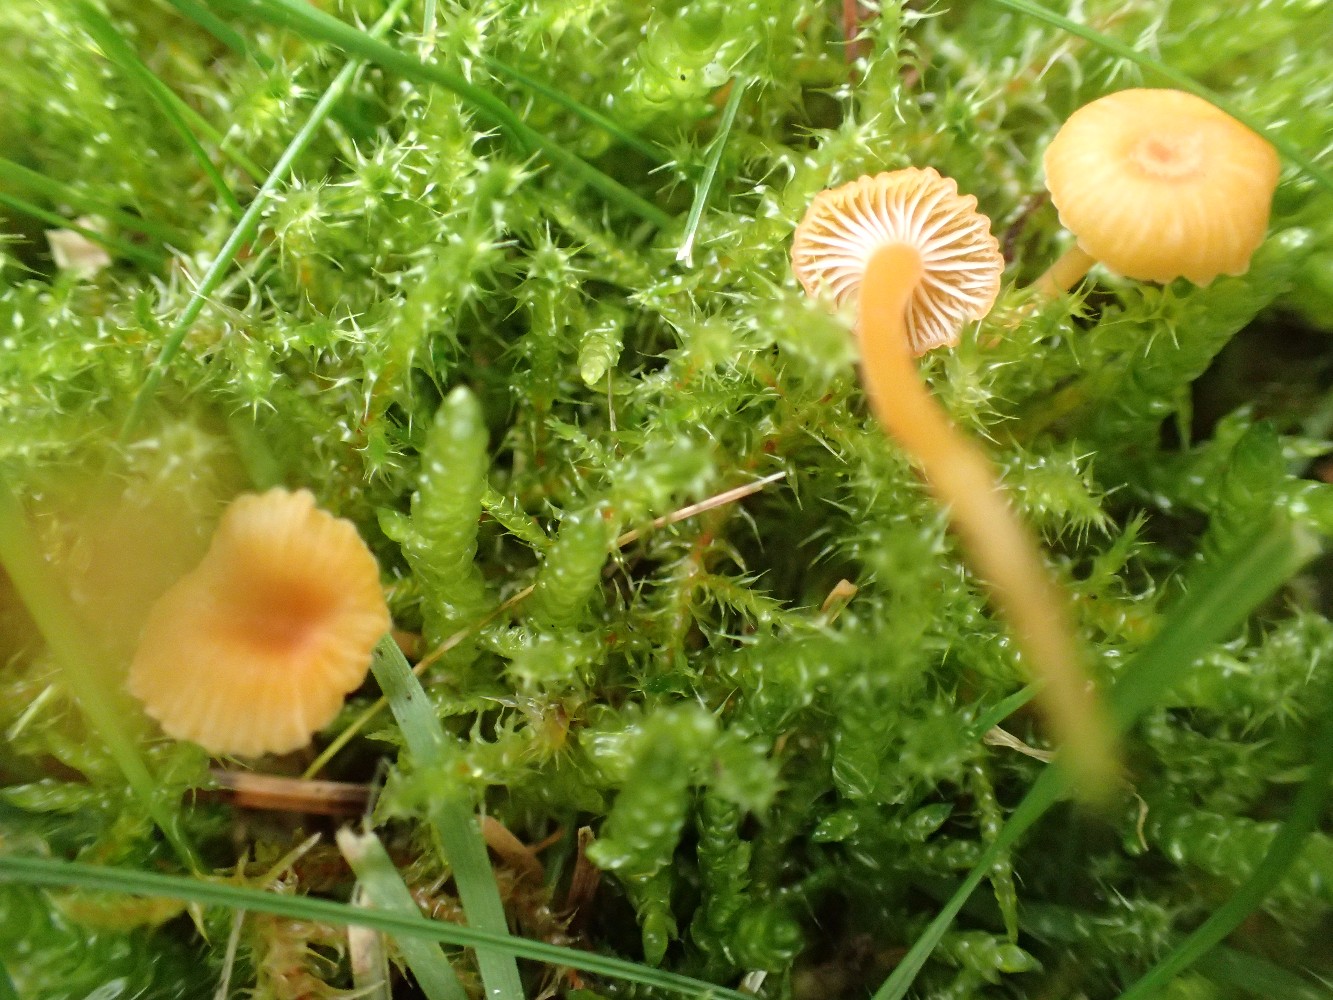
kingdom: Fungi
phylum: Basidiomycota
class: Agaricomycetes
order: Hymenochaetales
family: Rickenellaceae
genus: Rickenella
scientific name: Rickenella fibula
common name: orange mosnavlehat
